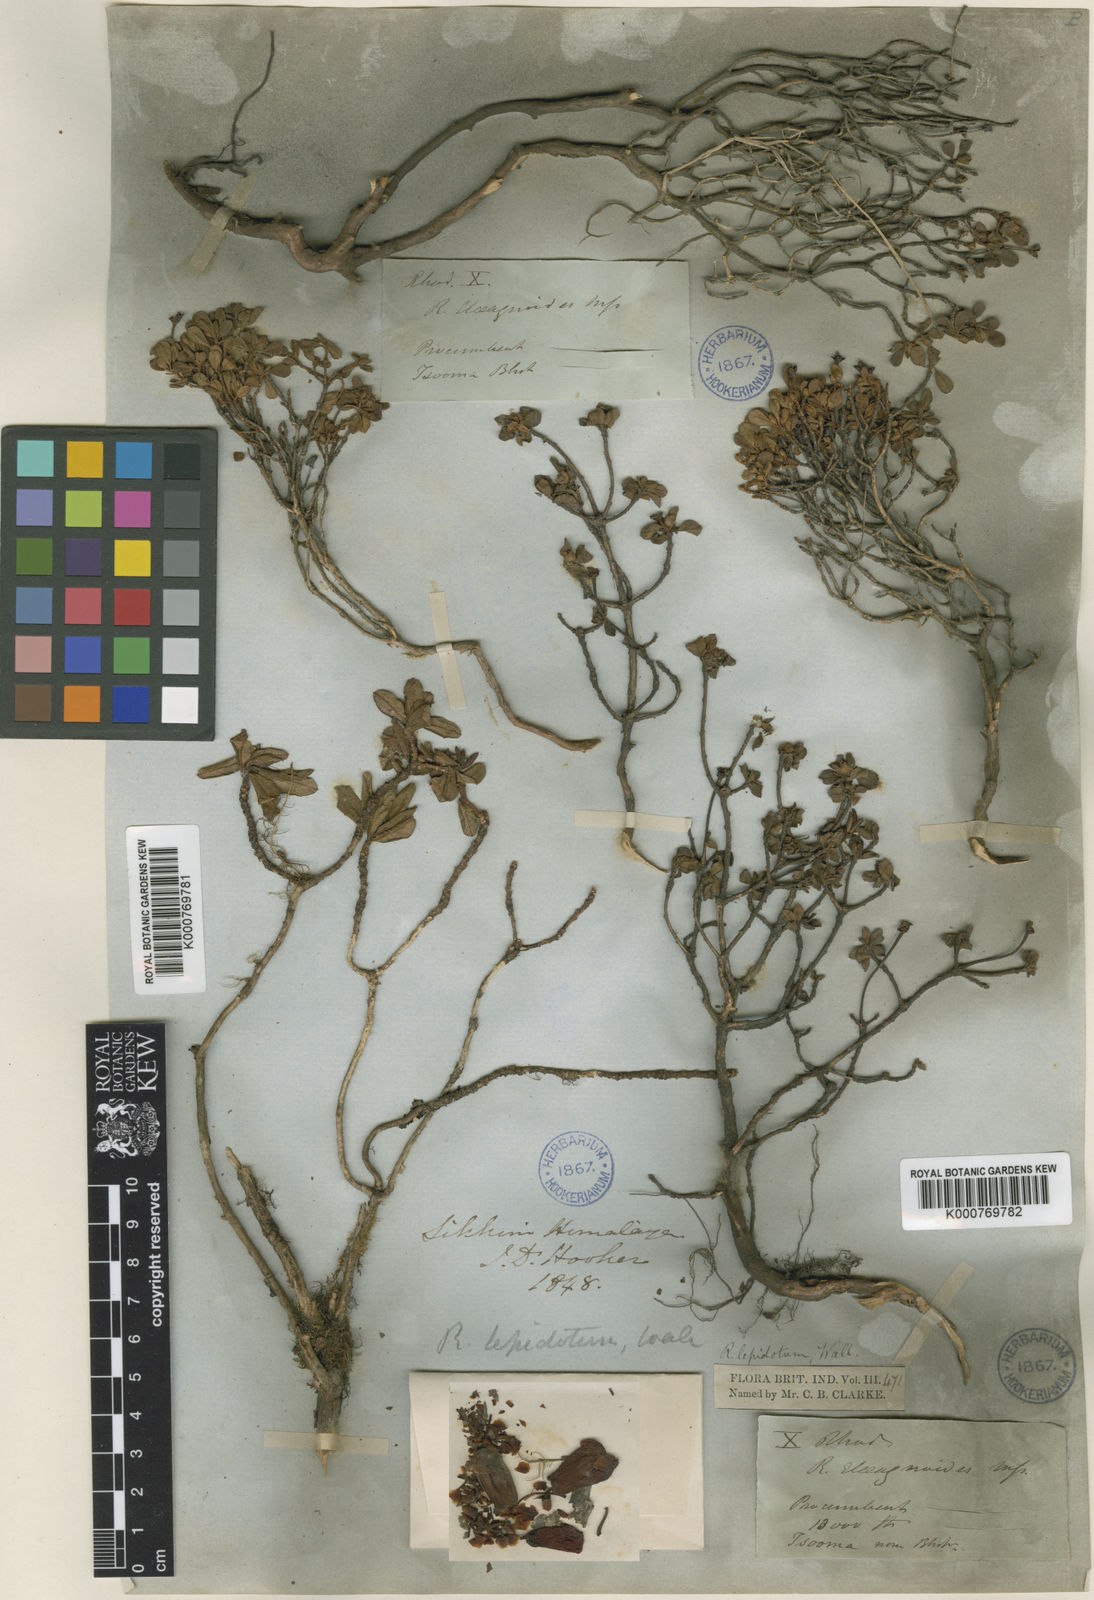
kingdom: Plantae
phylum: Tracheophyta
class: Magnoliopsida
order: Ericales
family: Ericaceae
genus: Rhododendron
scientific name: Rhododendron lepidotum
